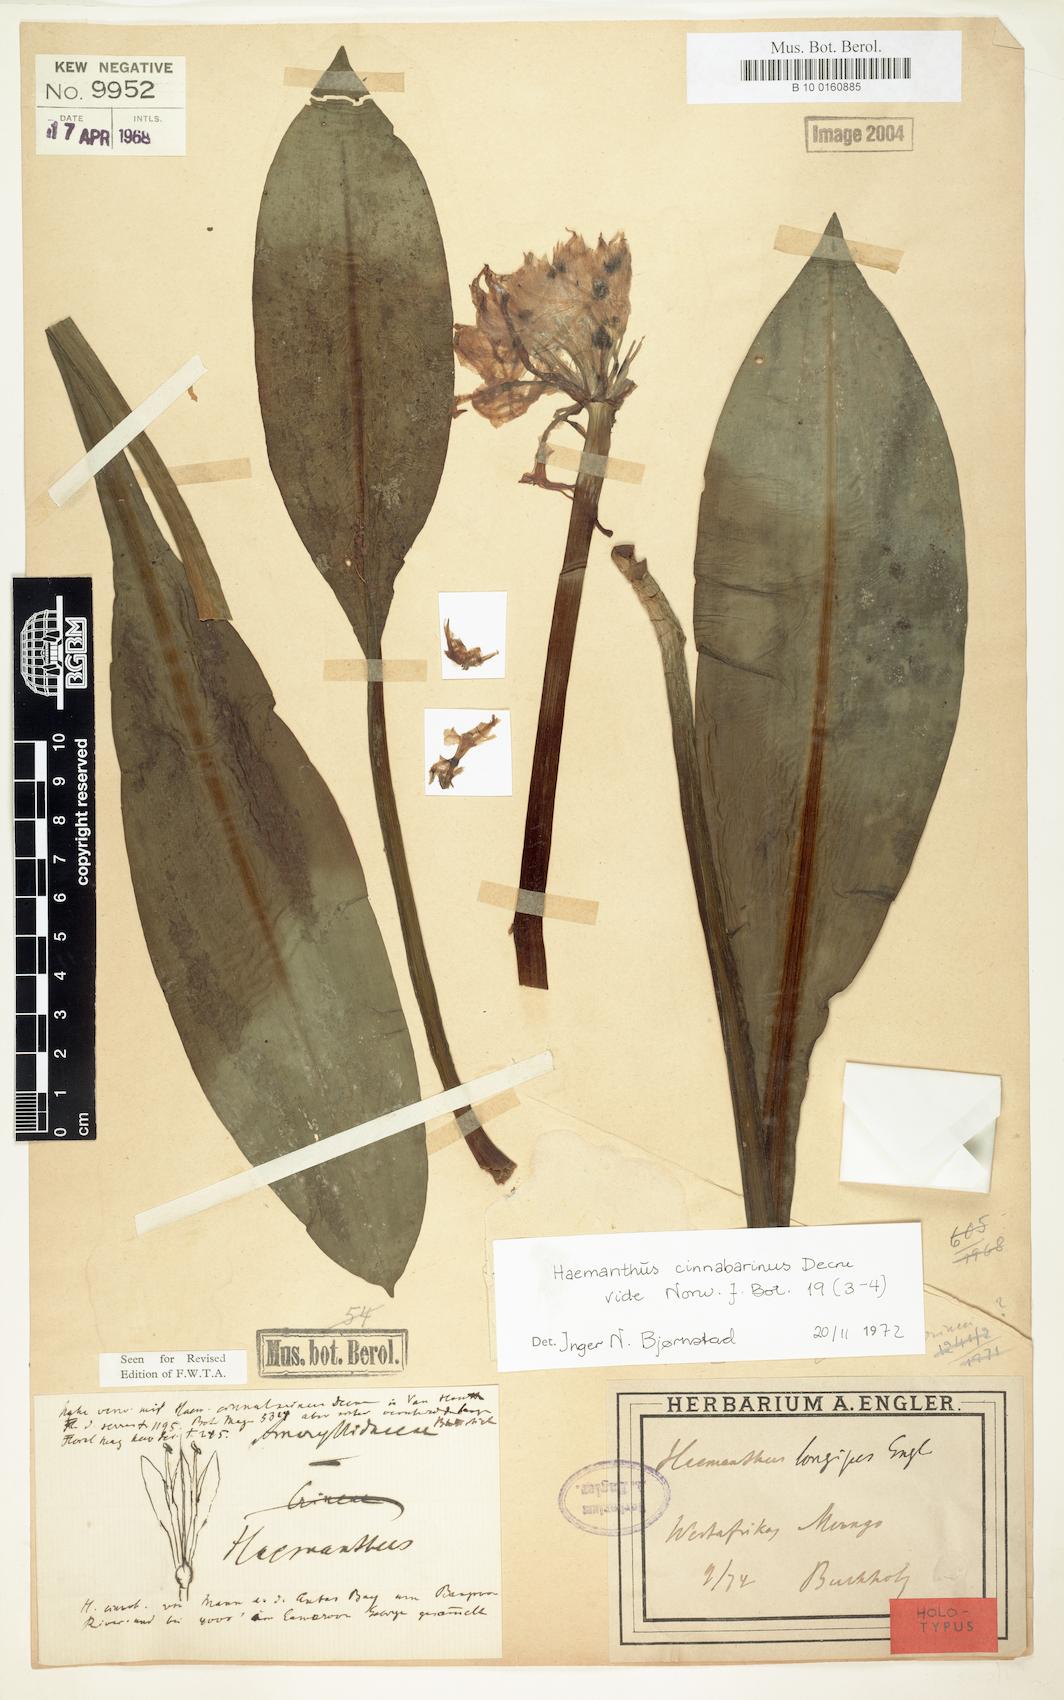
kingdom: Plantae
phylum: Tracheophyta
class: Liliopsida
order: Asparagales
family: Amaryllidaceae
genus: Scadoxus
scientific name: Scadoxus cinnabarinus
